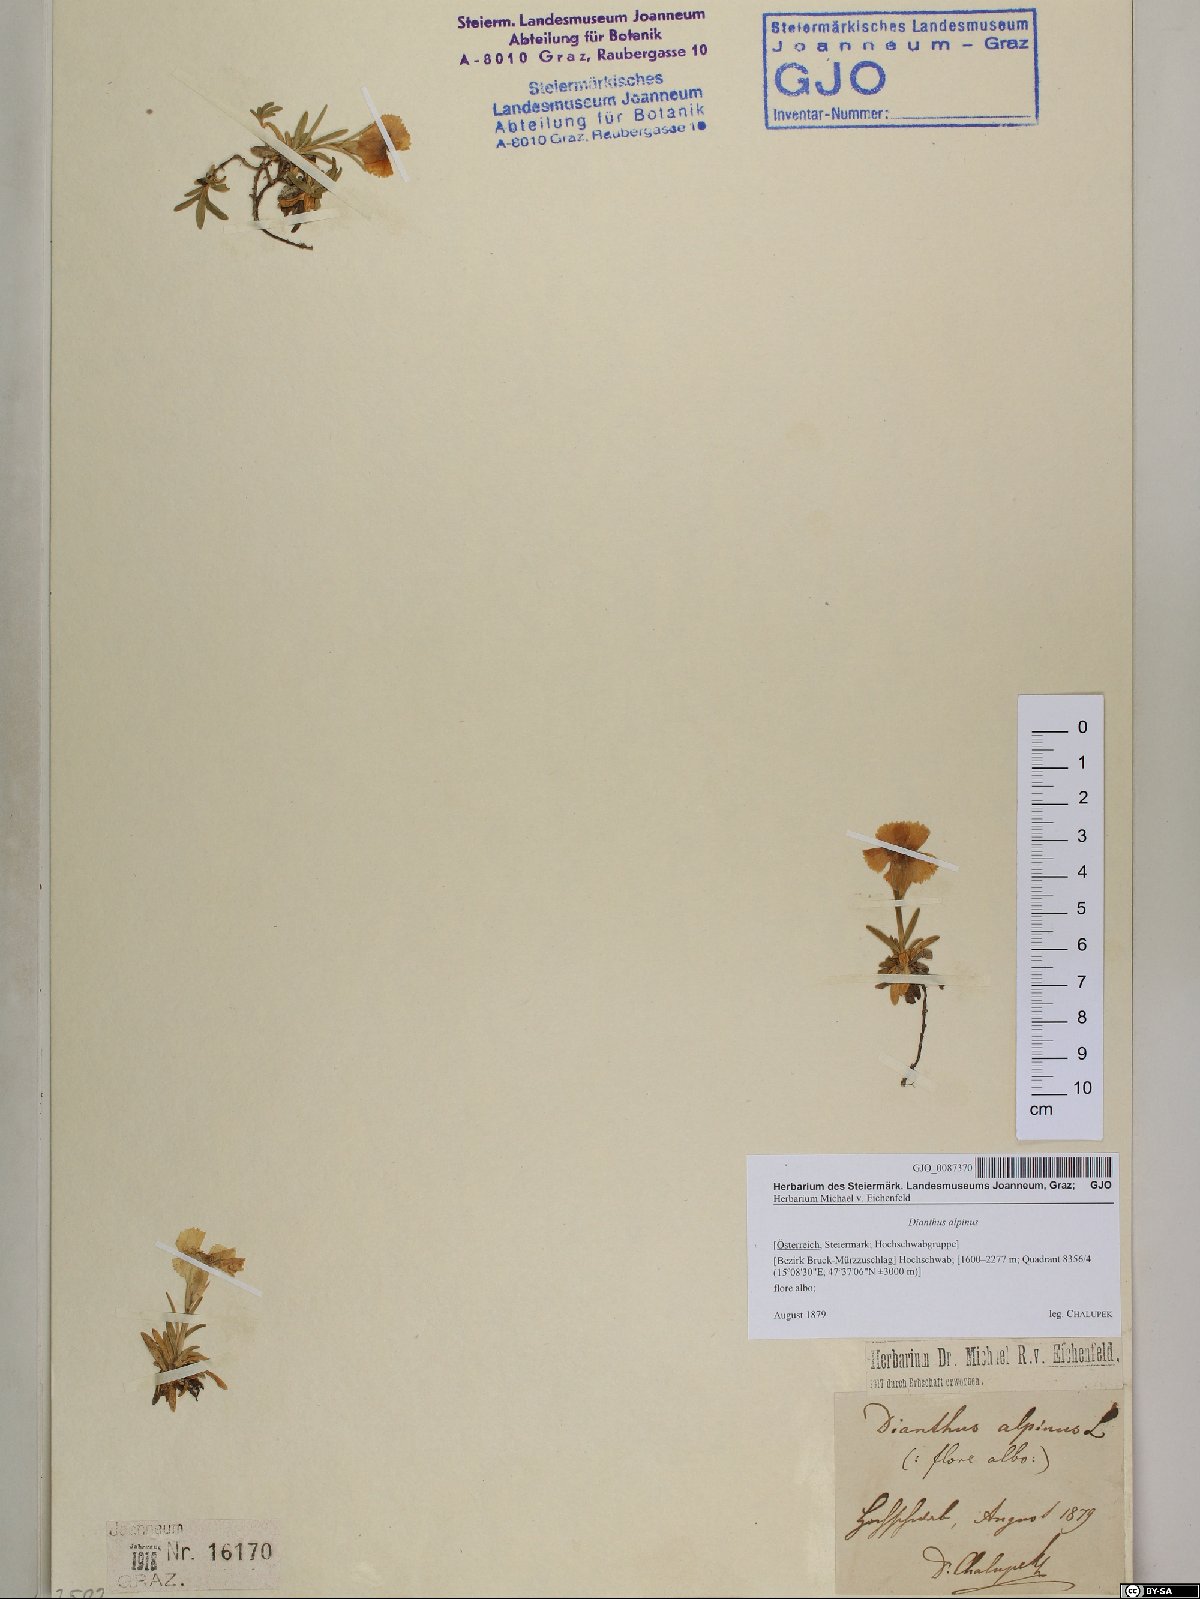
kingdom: Plantae
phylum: Tracheophyta
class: Magnoliopsida
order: Caryophyllales
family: Caryophyllaceae
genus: Dianthus
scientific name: Dianthus alpinus
